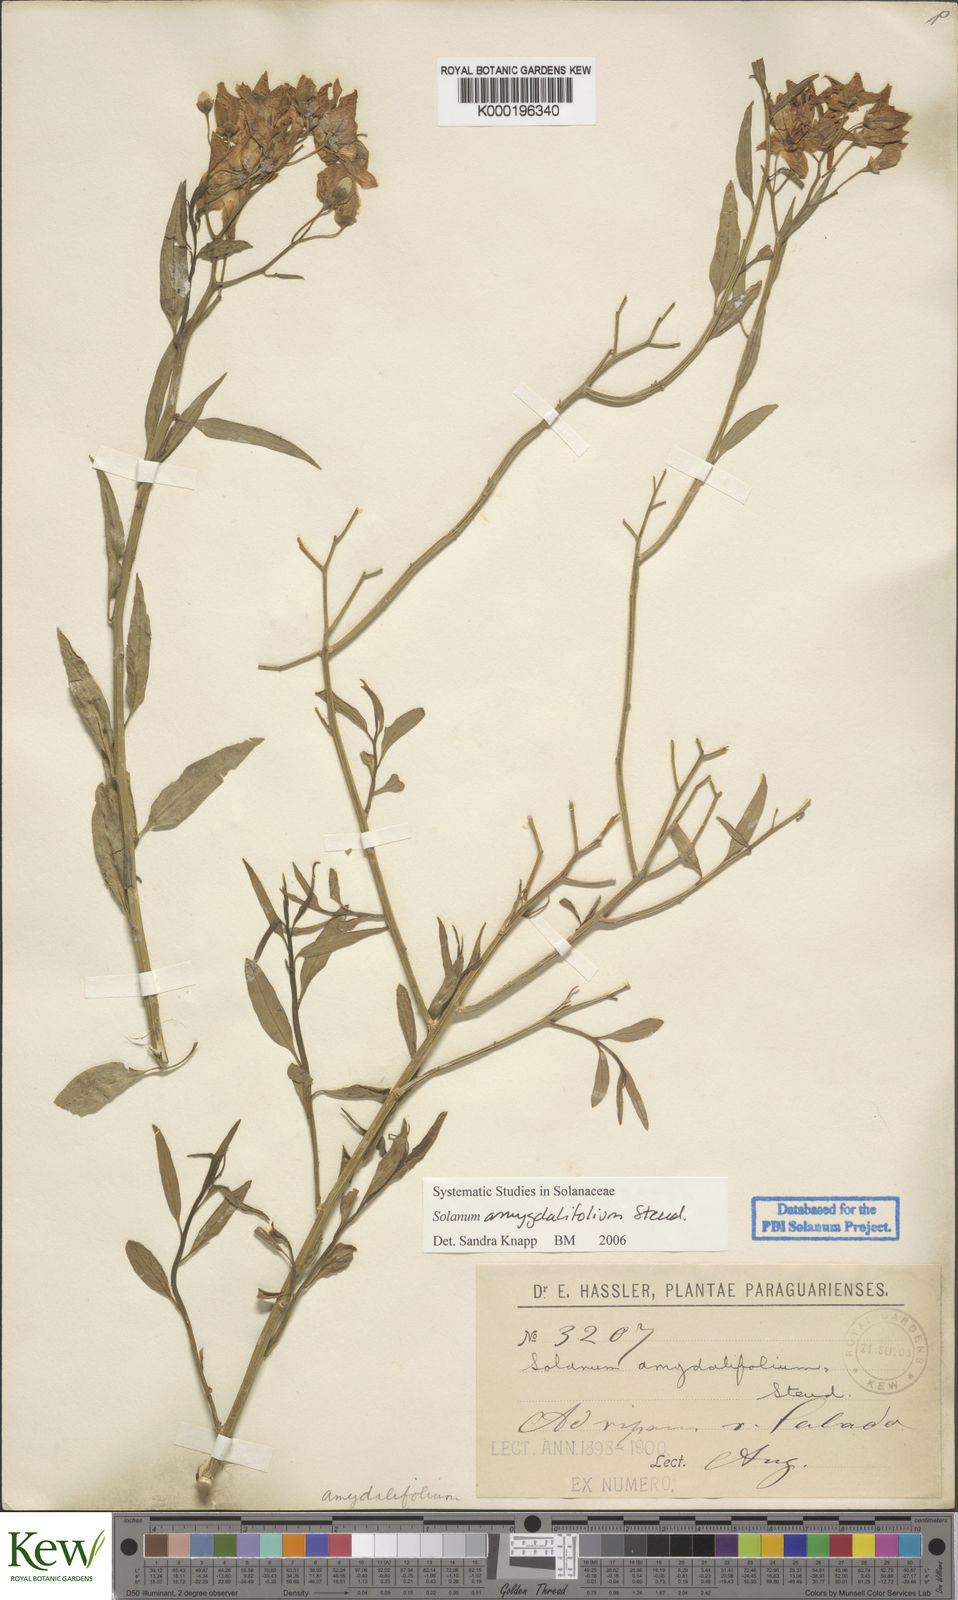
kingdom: Plantae
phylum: Tracheophyta
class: Magnoliopsida
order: Solanales
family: Solanaceae
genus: Solanum
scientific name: Solanum amygdalifolium
